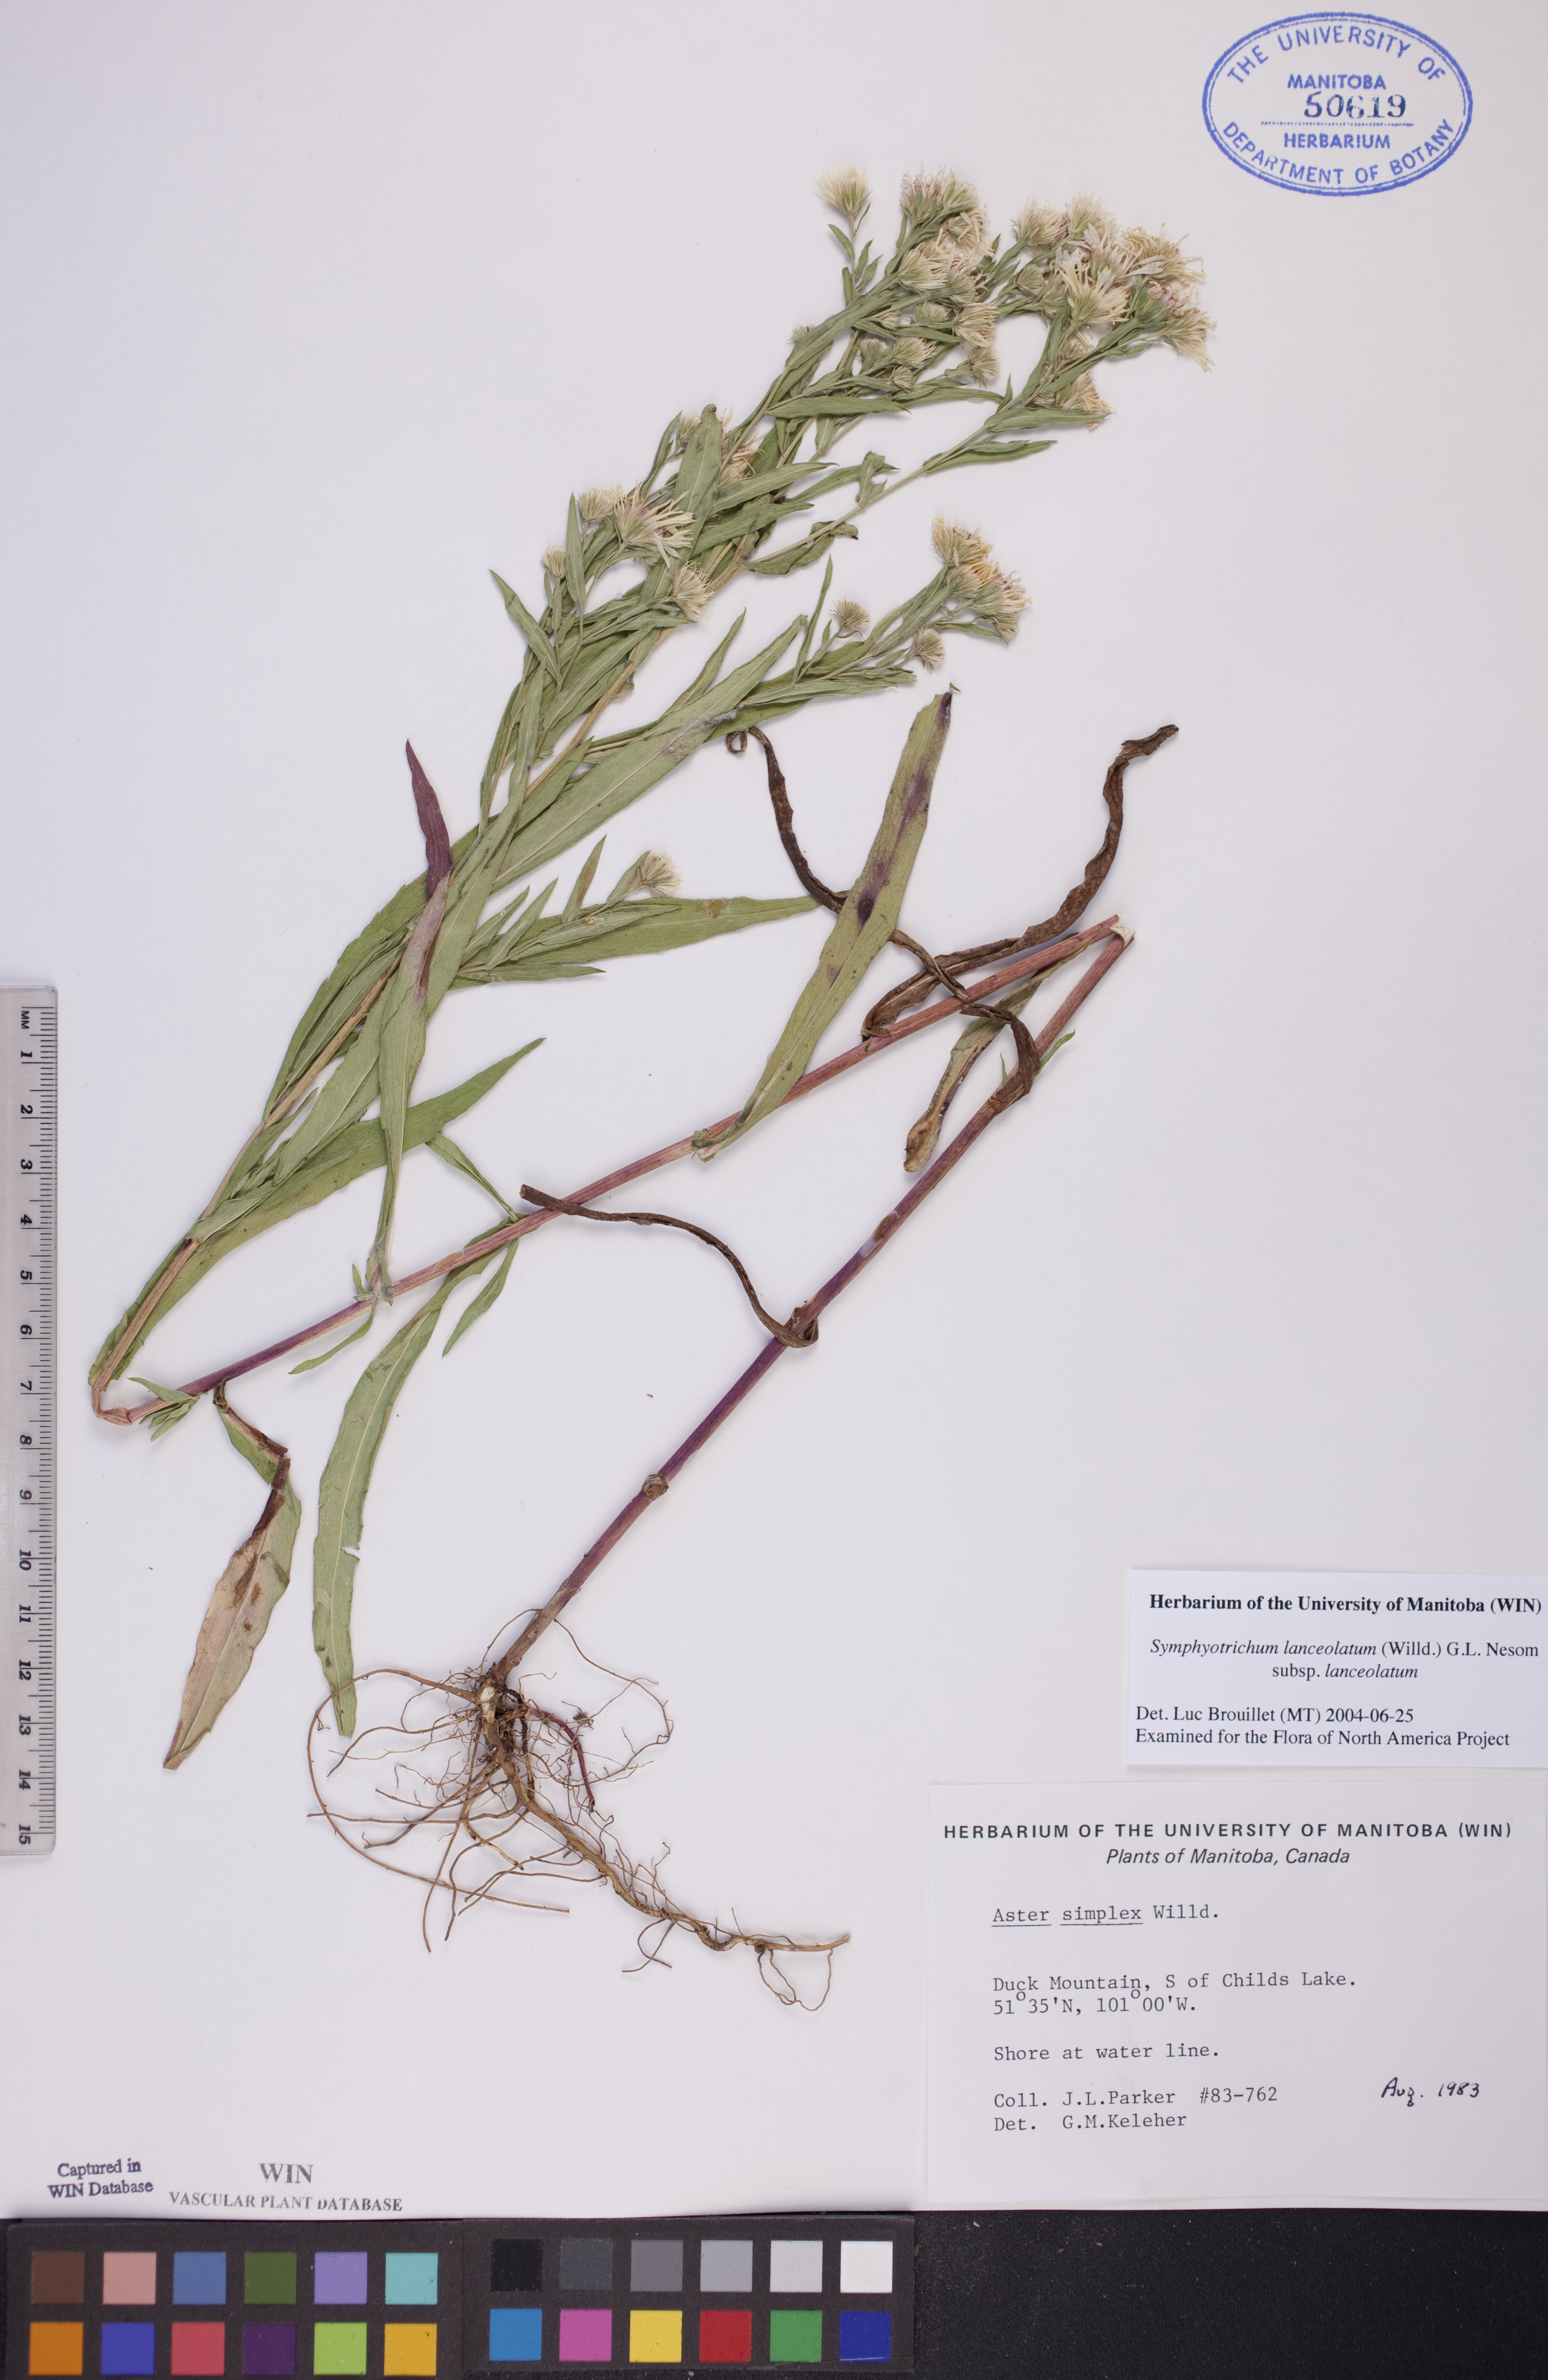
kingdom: Plantae
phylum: Tracheophyta
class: Magnoliopsida
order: Asterales
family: Asteraceae
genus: Symphyotrichum
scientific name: Symphyotrichum lanceolatum
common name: Panicled aster
